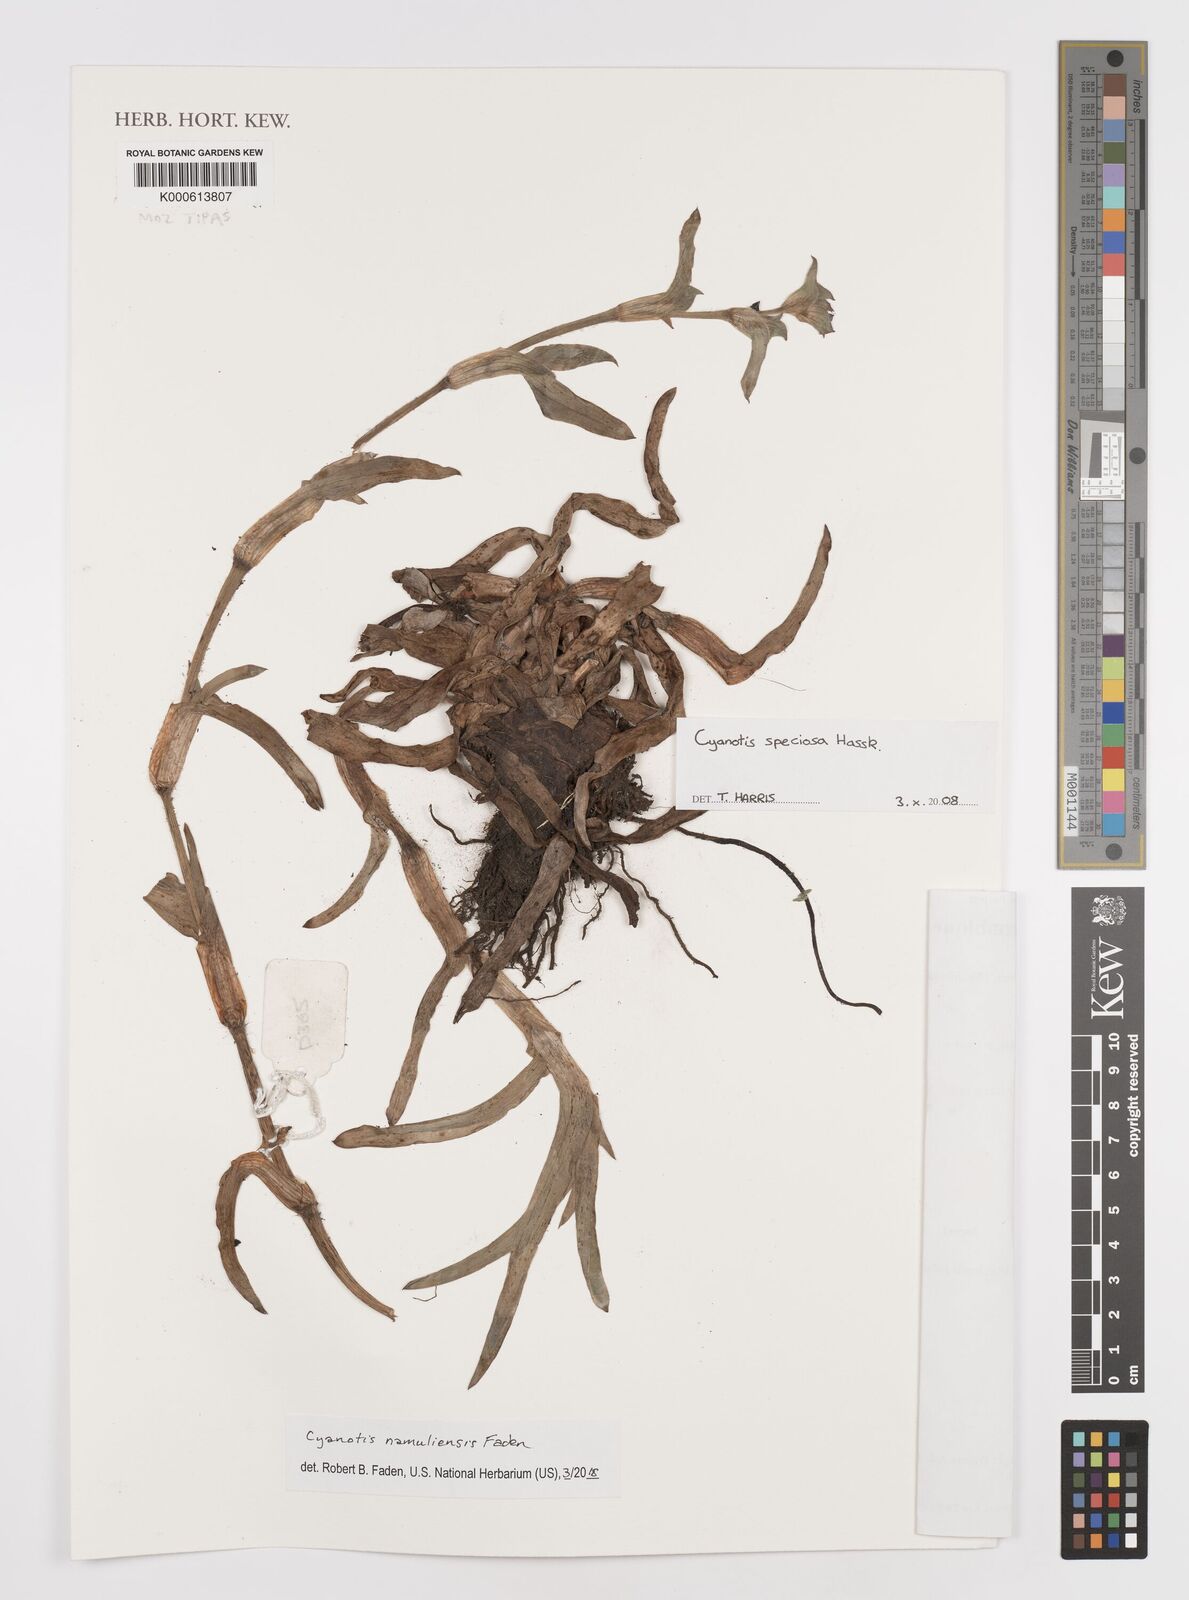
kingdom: Plantae
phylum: Tracheophyta
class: Liliopsida
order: Commelinales
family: Commelinaceae
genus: Cyanotis
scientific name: Cyanotis speciosa
